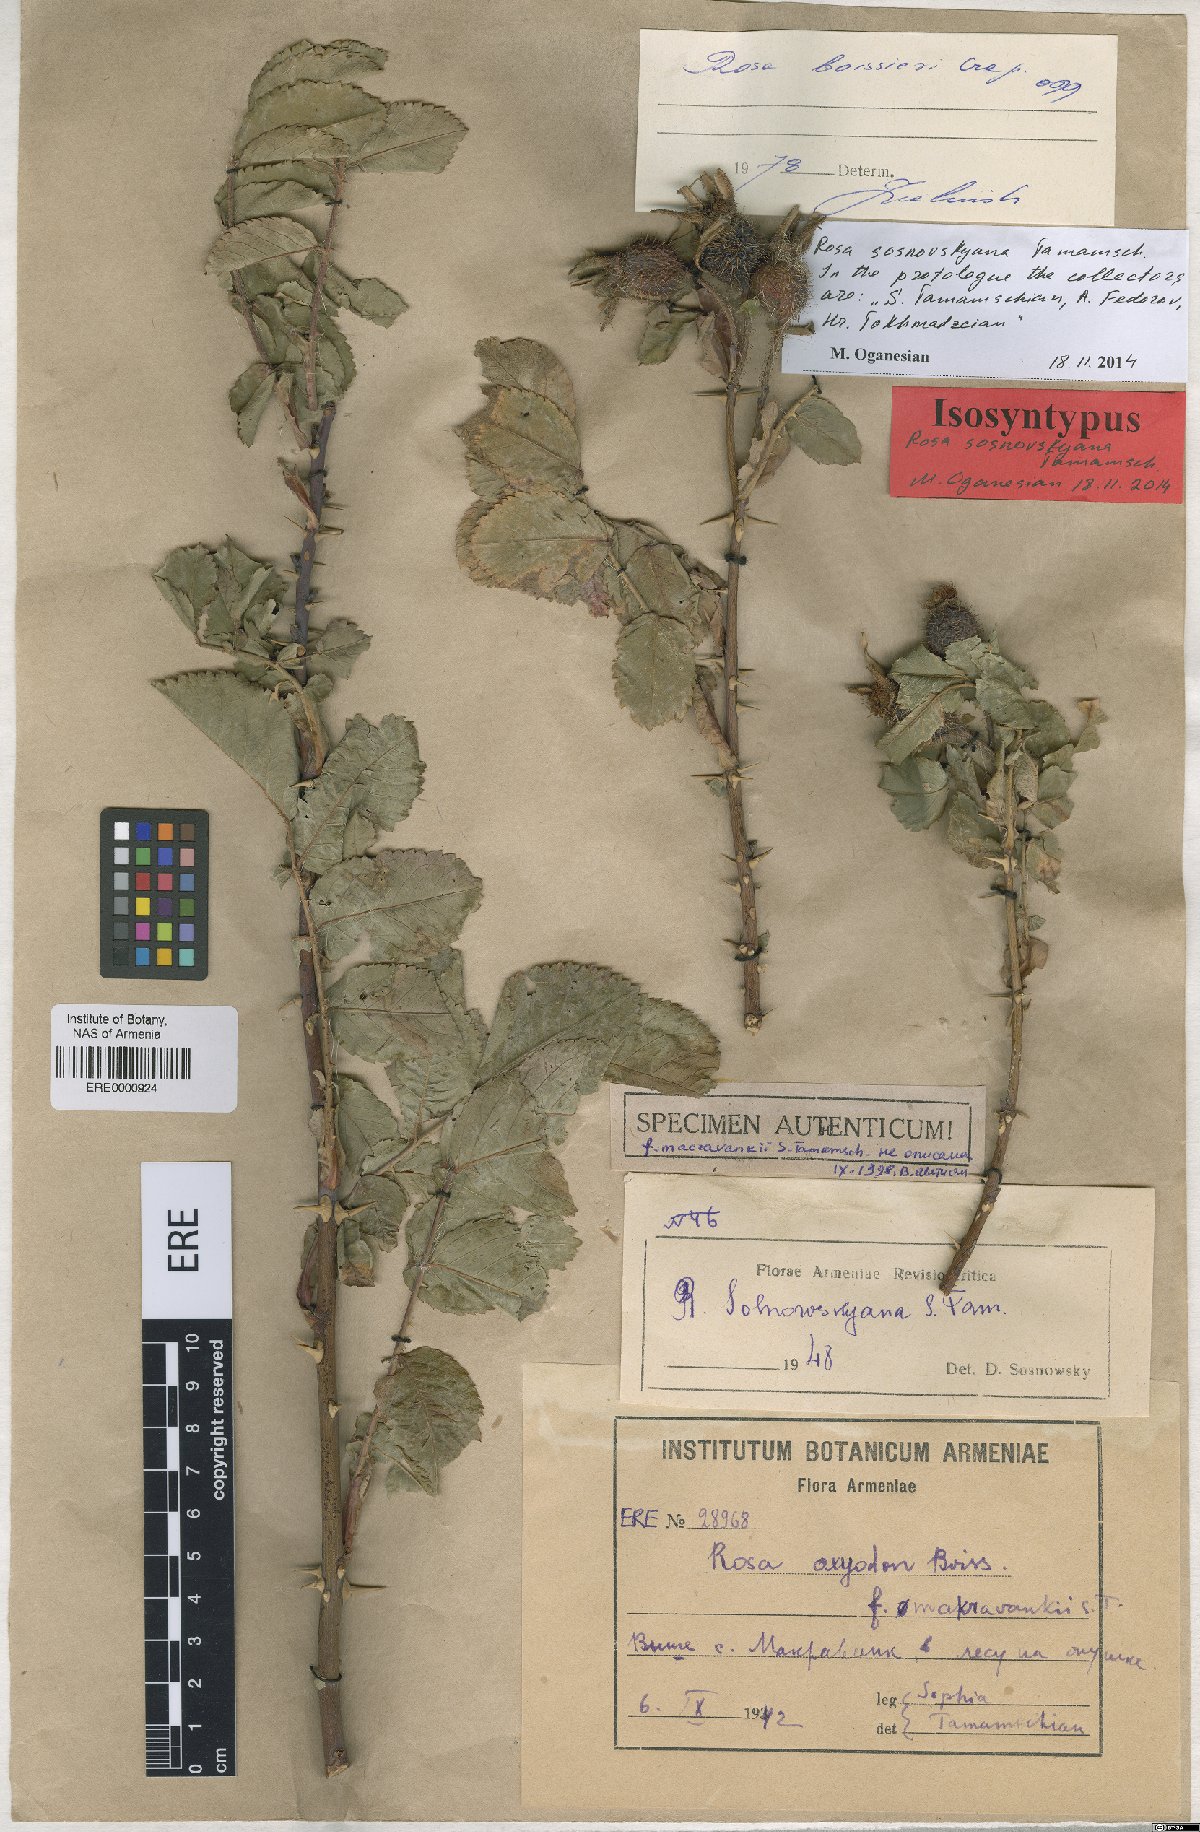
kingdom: Plantae
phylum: Tracheophyta
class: Magnoliopsida
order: Rosales
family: Rosaceae
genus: Rosa
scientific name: Rosa boissieri
